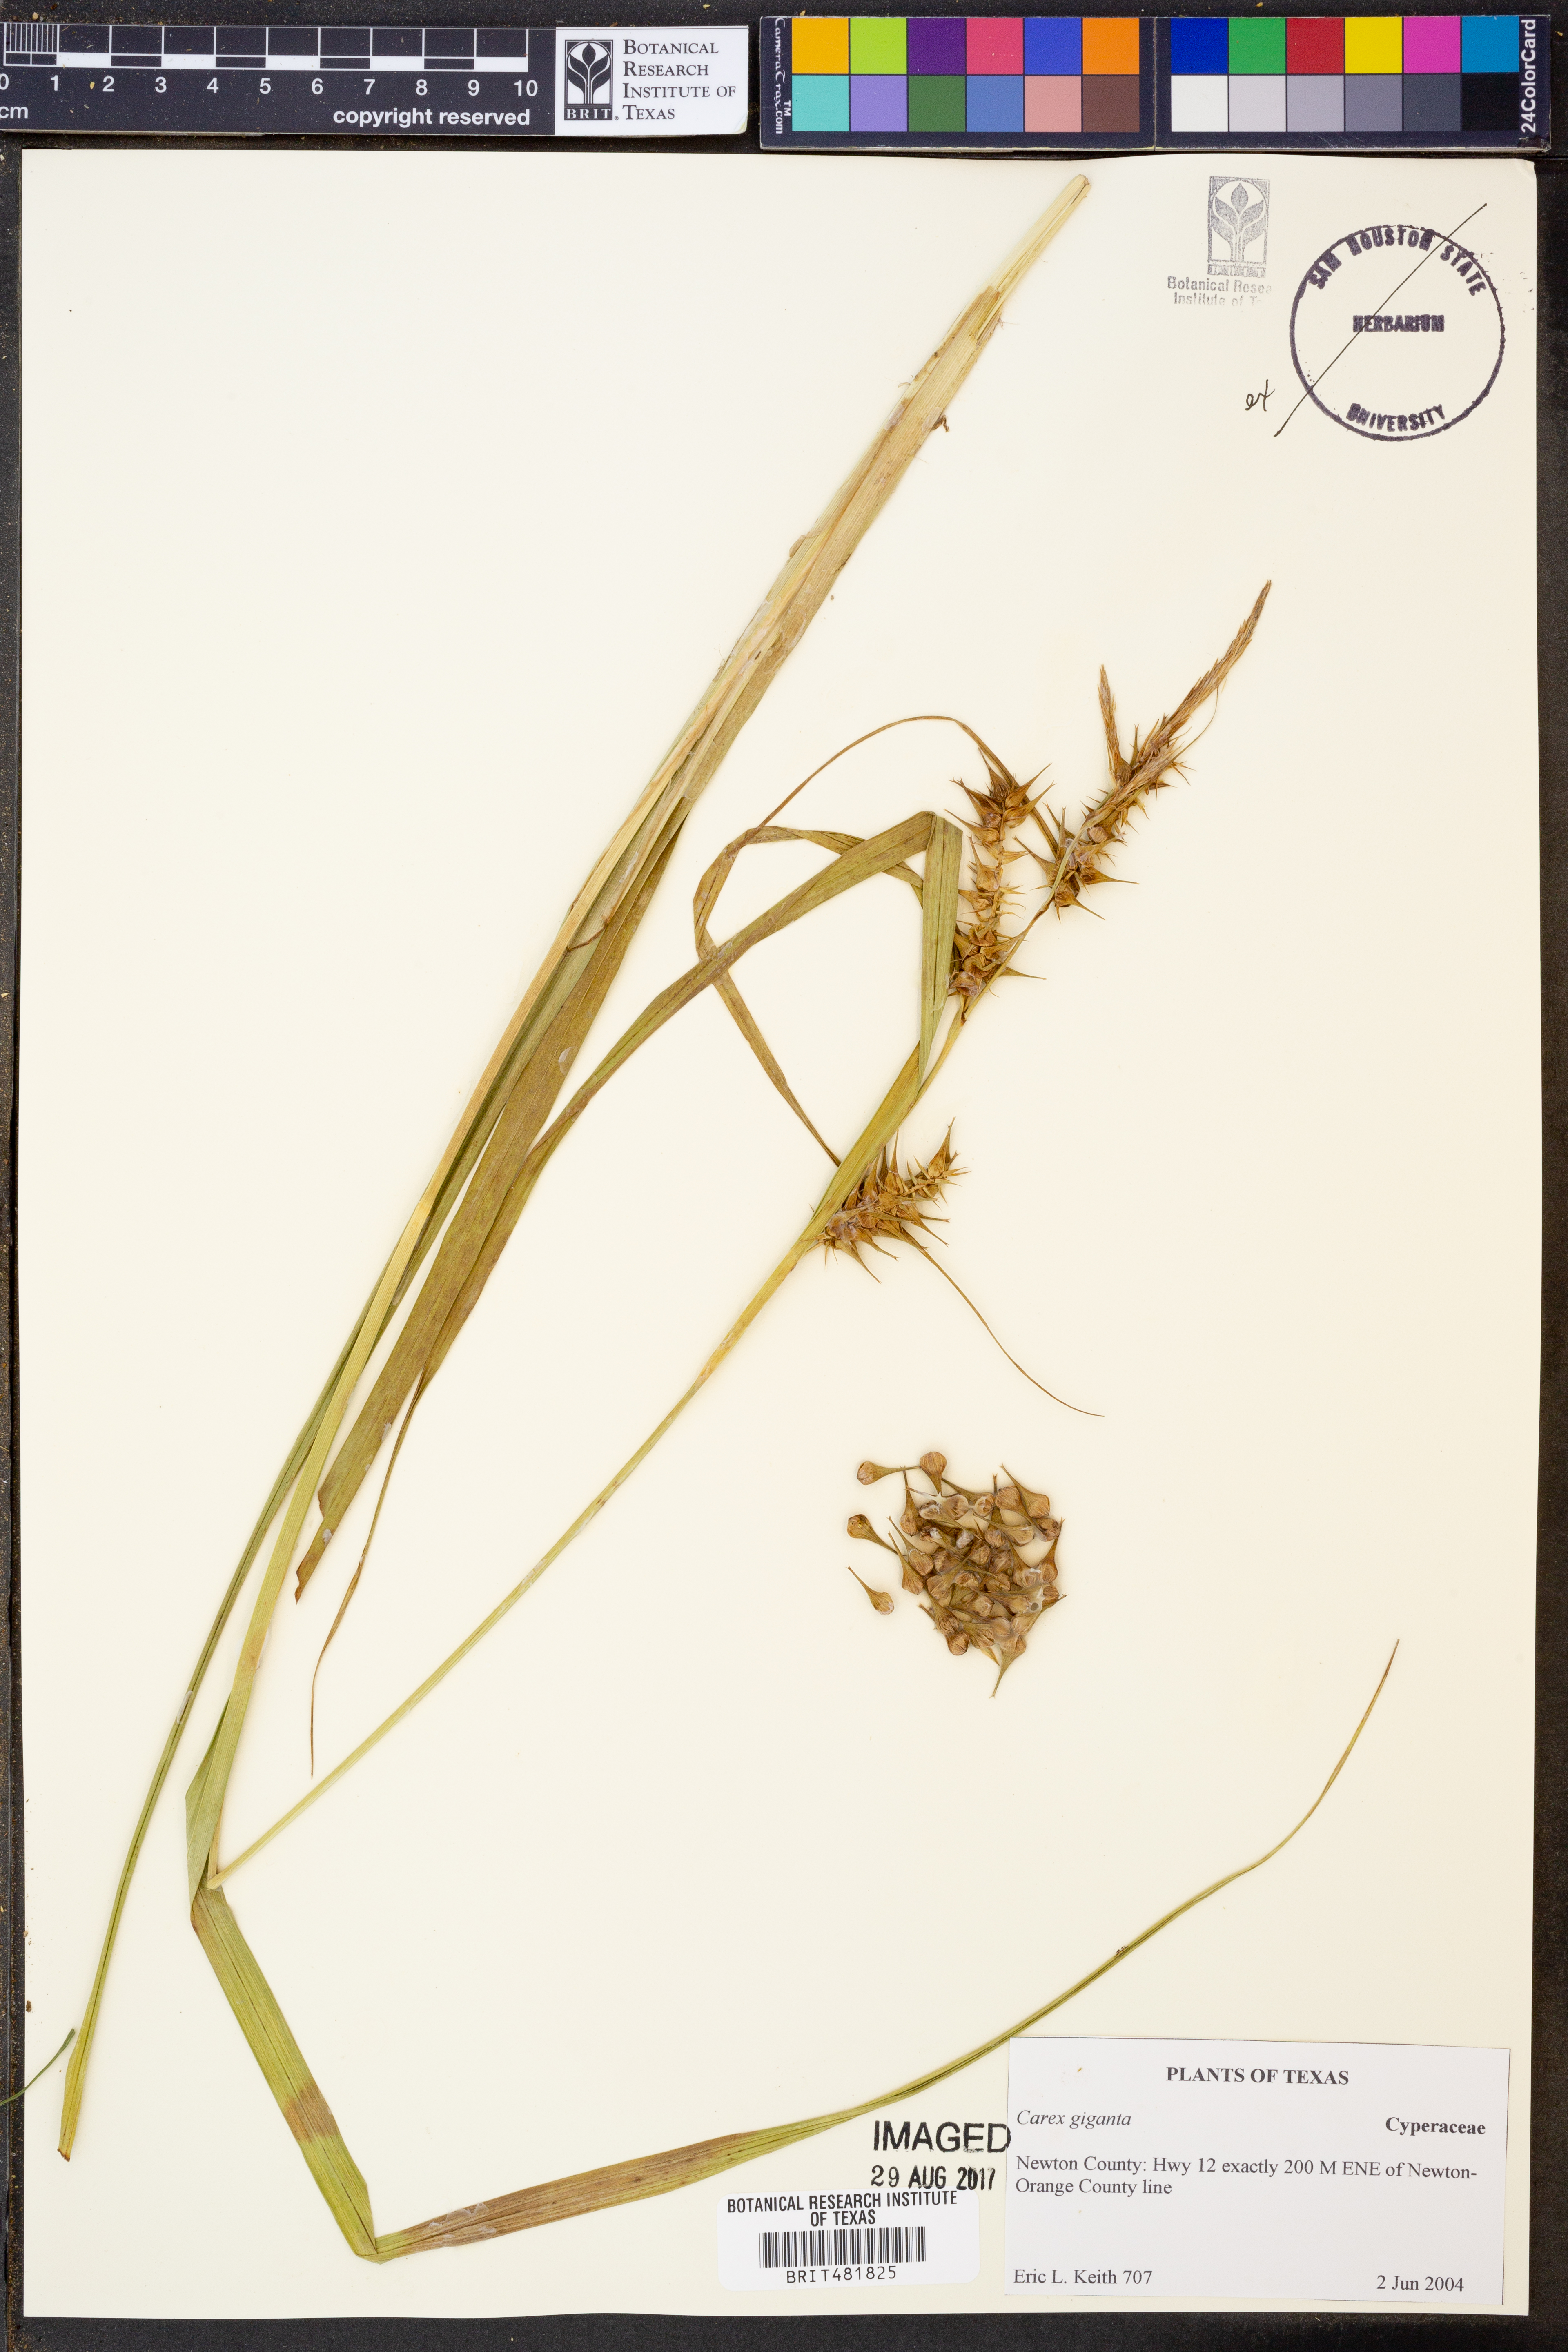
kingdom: Plantae
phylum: Tracheophyta
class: Liliopsida
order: Poales
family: Cyperaceae
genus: Carex
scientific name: Carex gigantea
